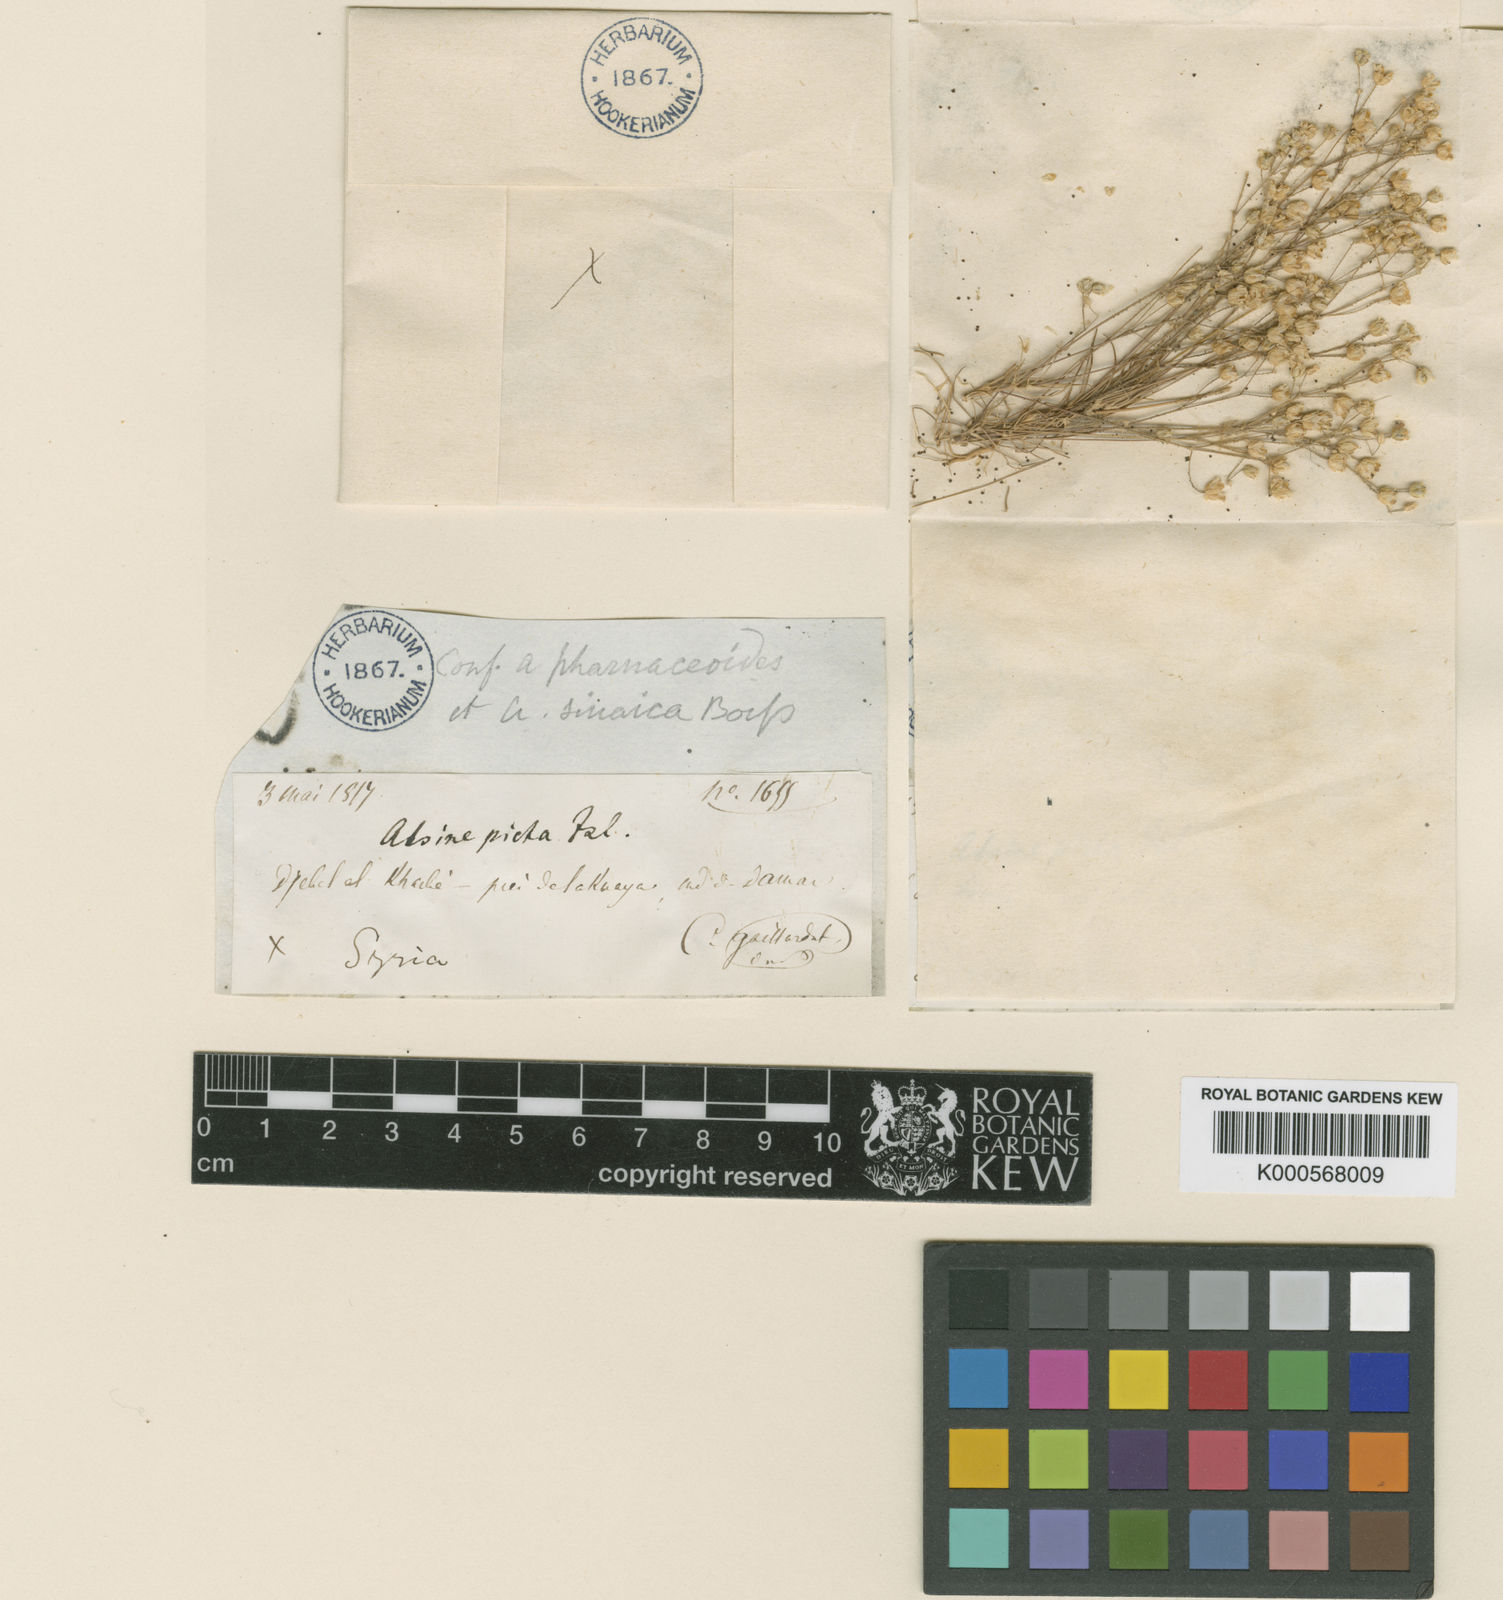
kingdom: Plantae
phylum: Tracheophyta
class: Magnoliopsida
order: Caryophyllales
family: Caryophyllaceae
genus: Eremogone
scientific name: Eremogone picta
